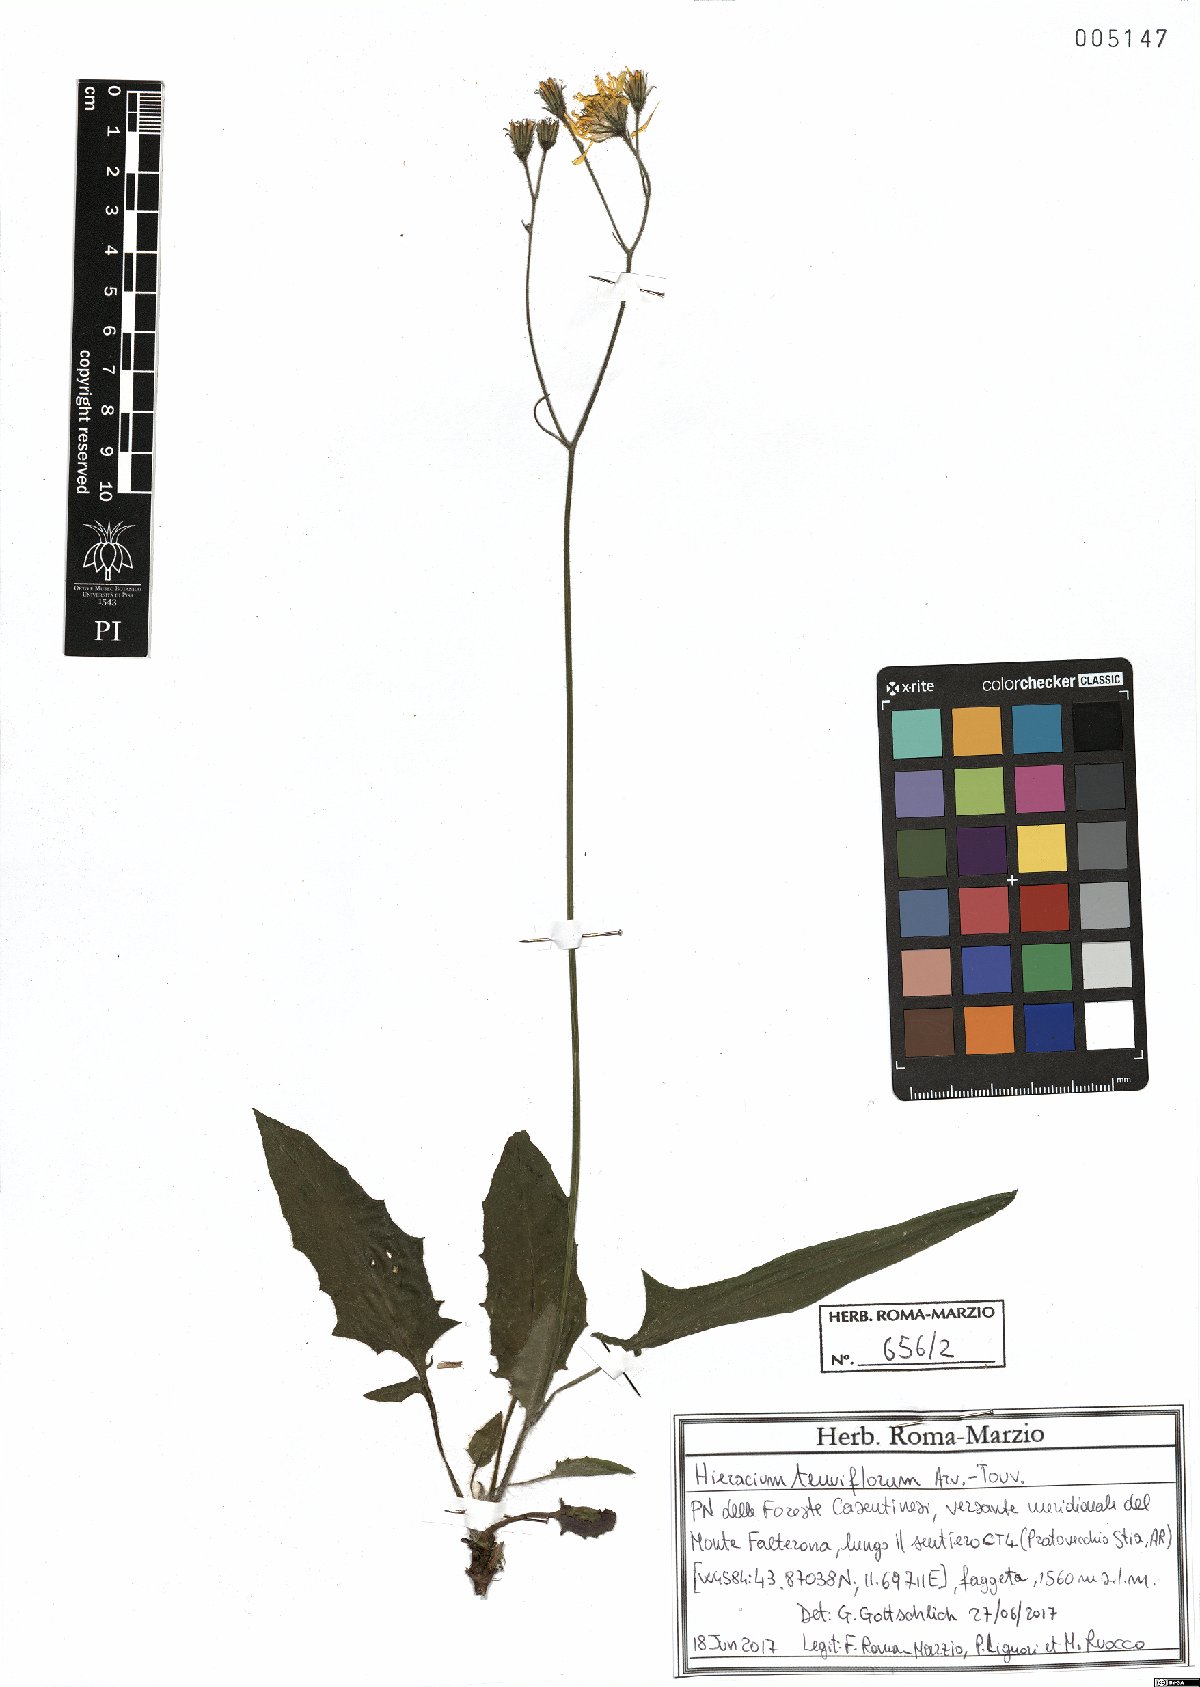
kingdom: Plantae
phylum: Tracheophyta
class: Magnoliopsida
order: Asterales
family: Asteraceae
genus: Hieracium
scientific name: Hieracium tenuiflorum
